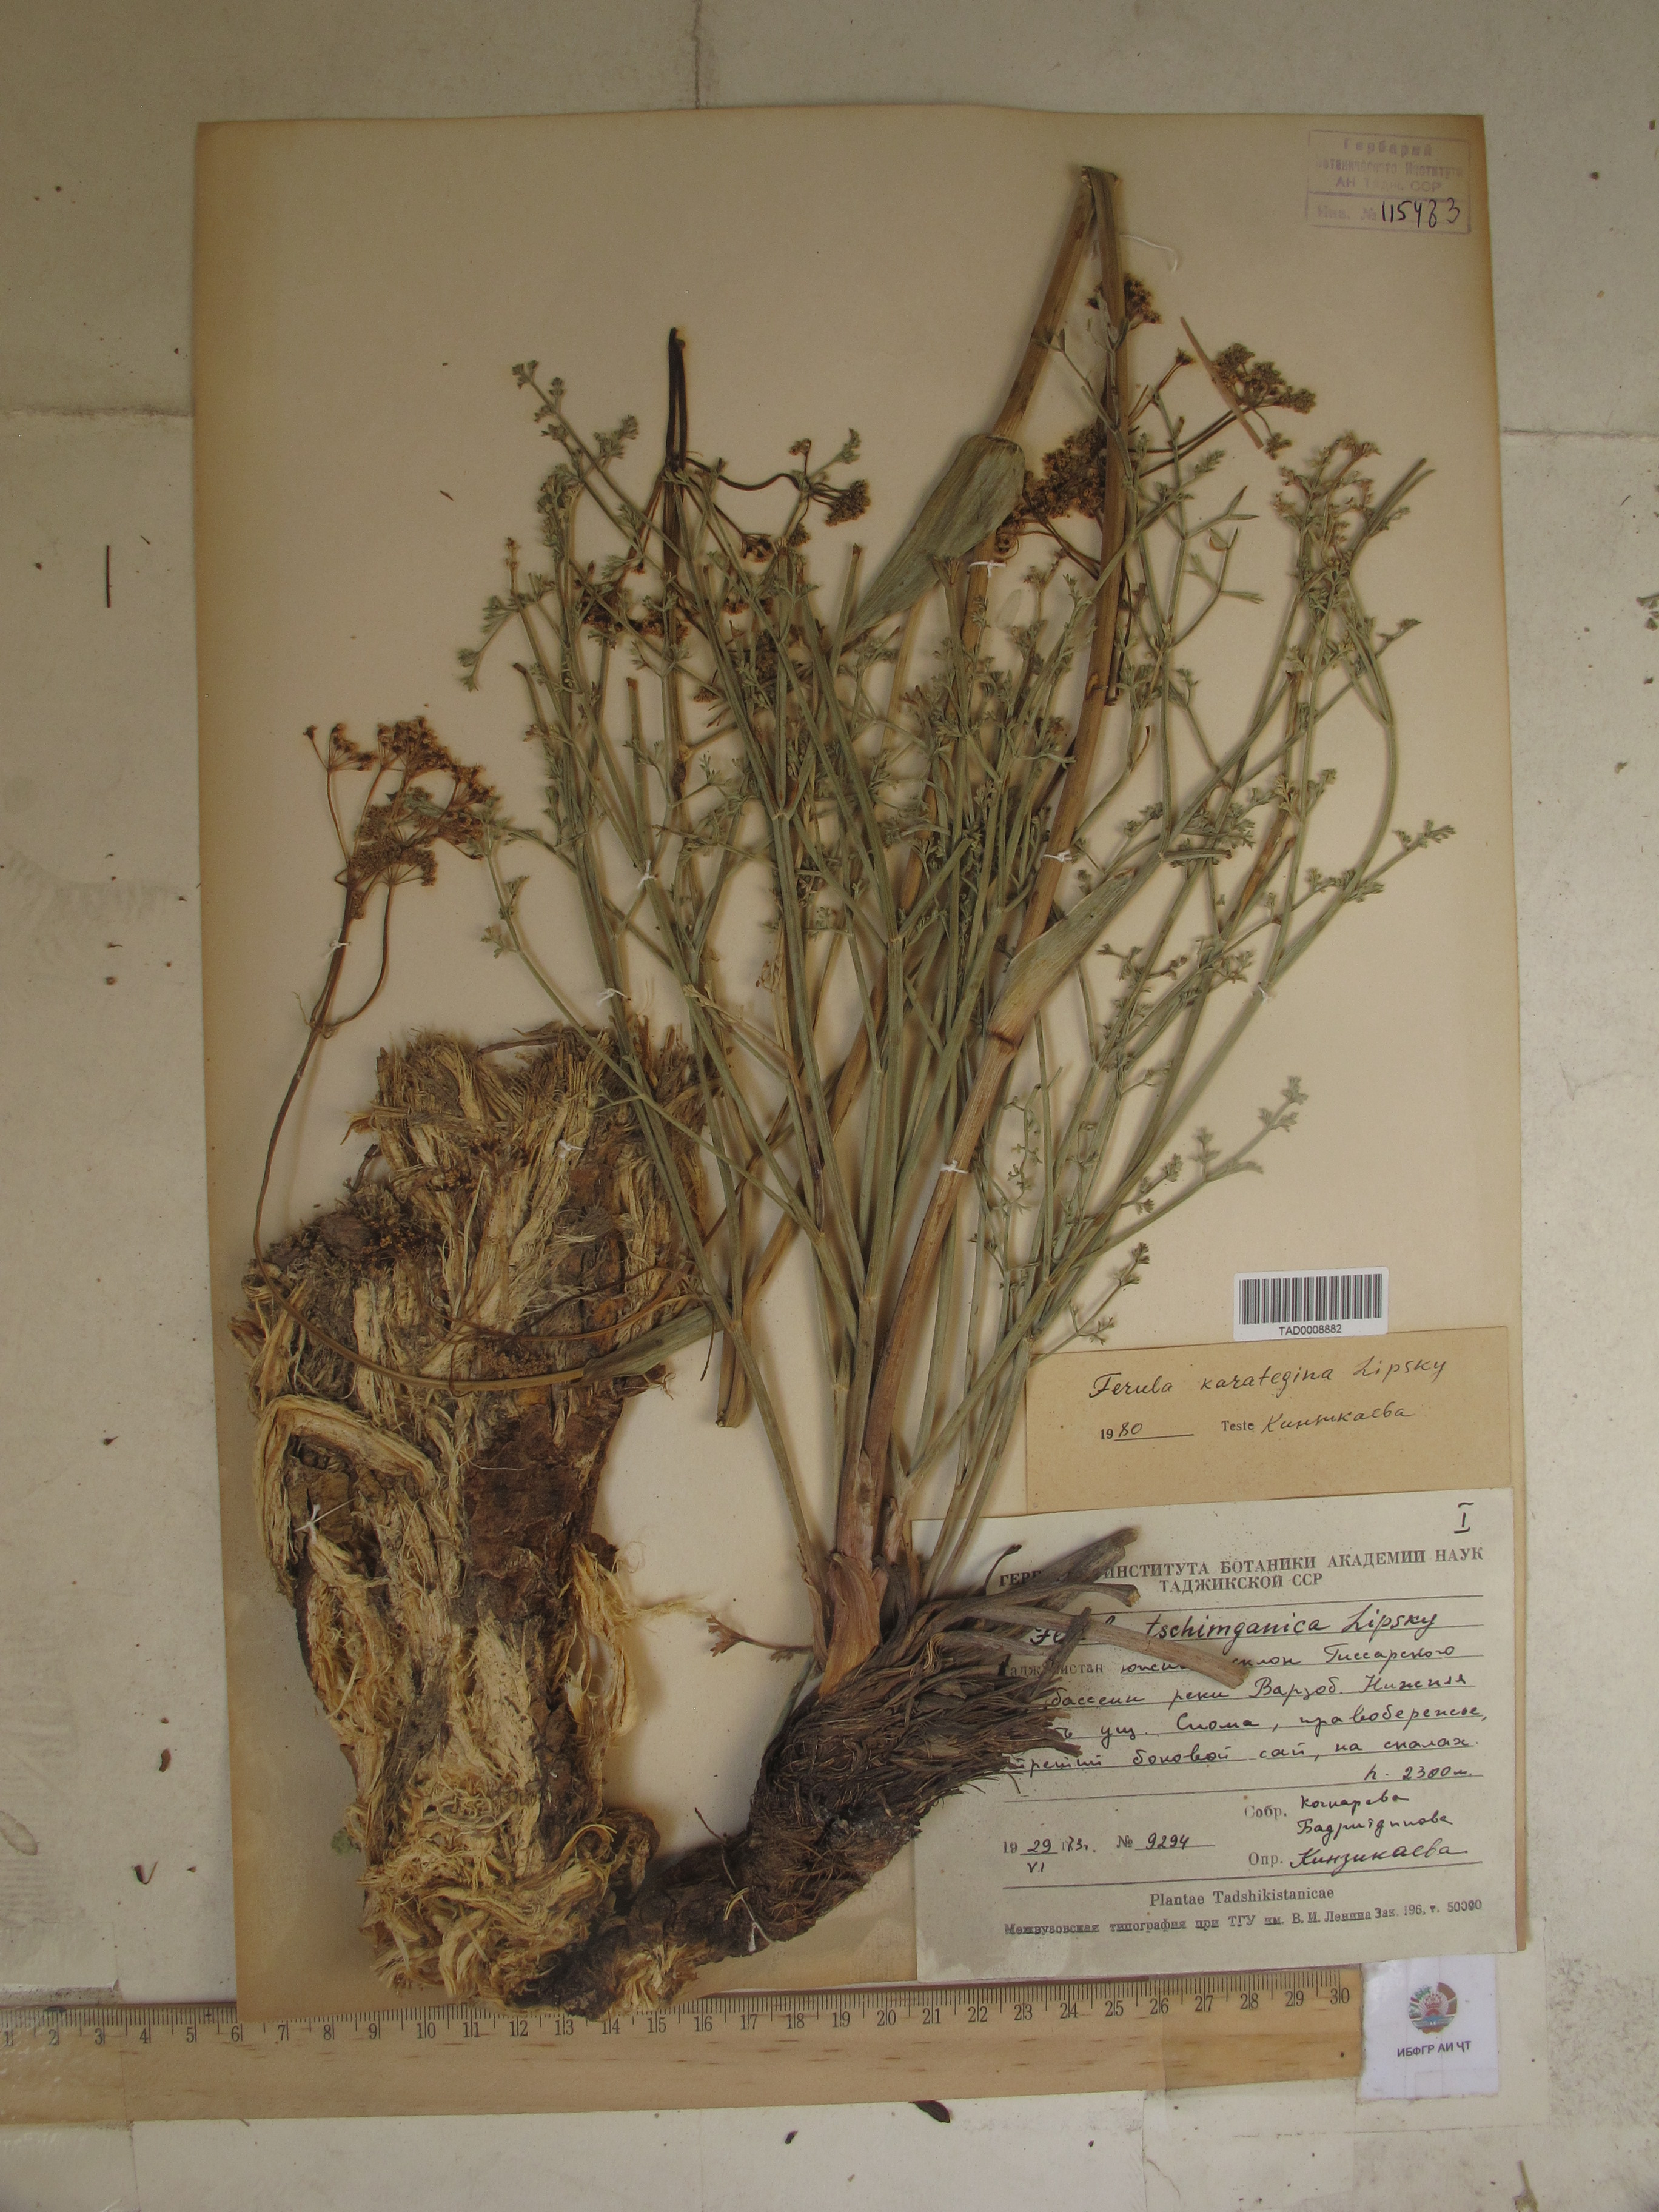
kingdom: Plantae
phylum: Tracheophyta
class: Magnoliopsida
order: Apiales
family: Apiaceae
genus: Ferula
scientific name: Ferula tschimganica
